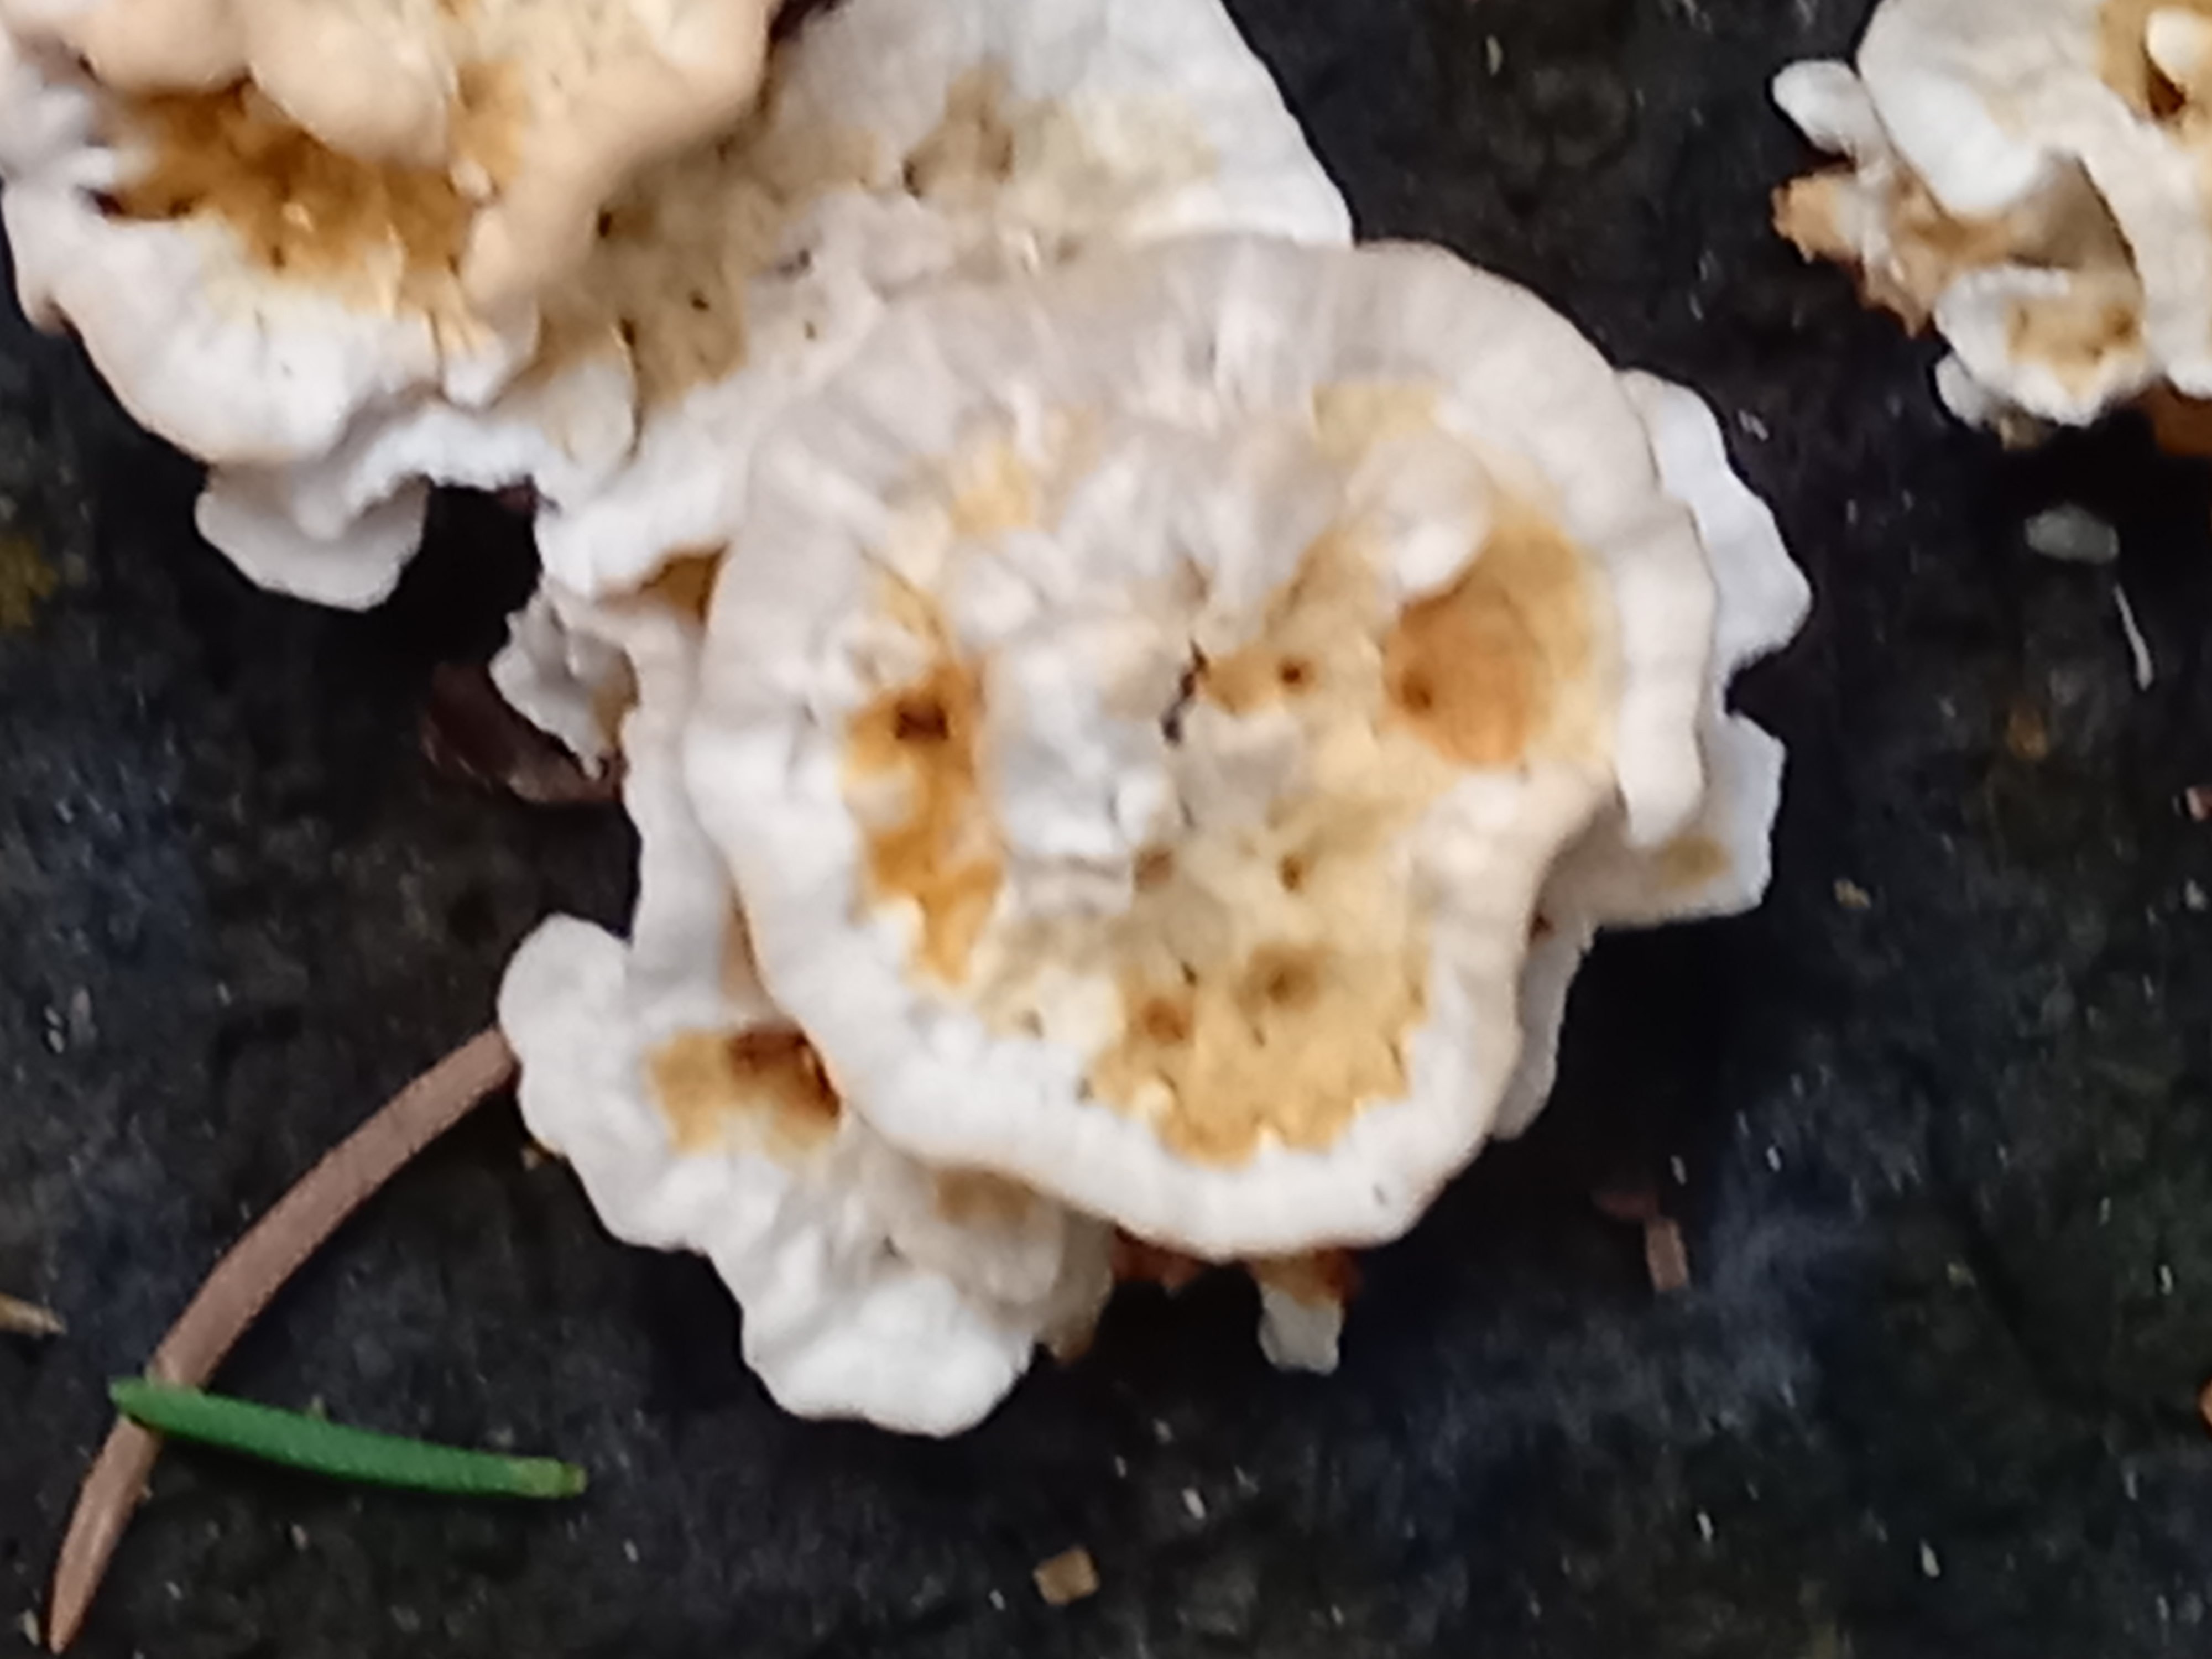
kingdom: Fungi
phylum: Basidiomycota
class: Agaricomycetes
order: Polyporales
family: Dacryobolaceae
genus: Oligoporus
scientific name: Oligoporus wakefieldiae
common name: række-kødporesvamp
